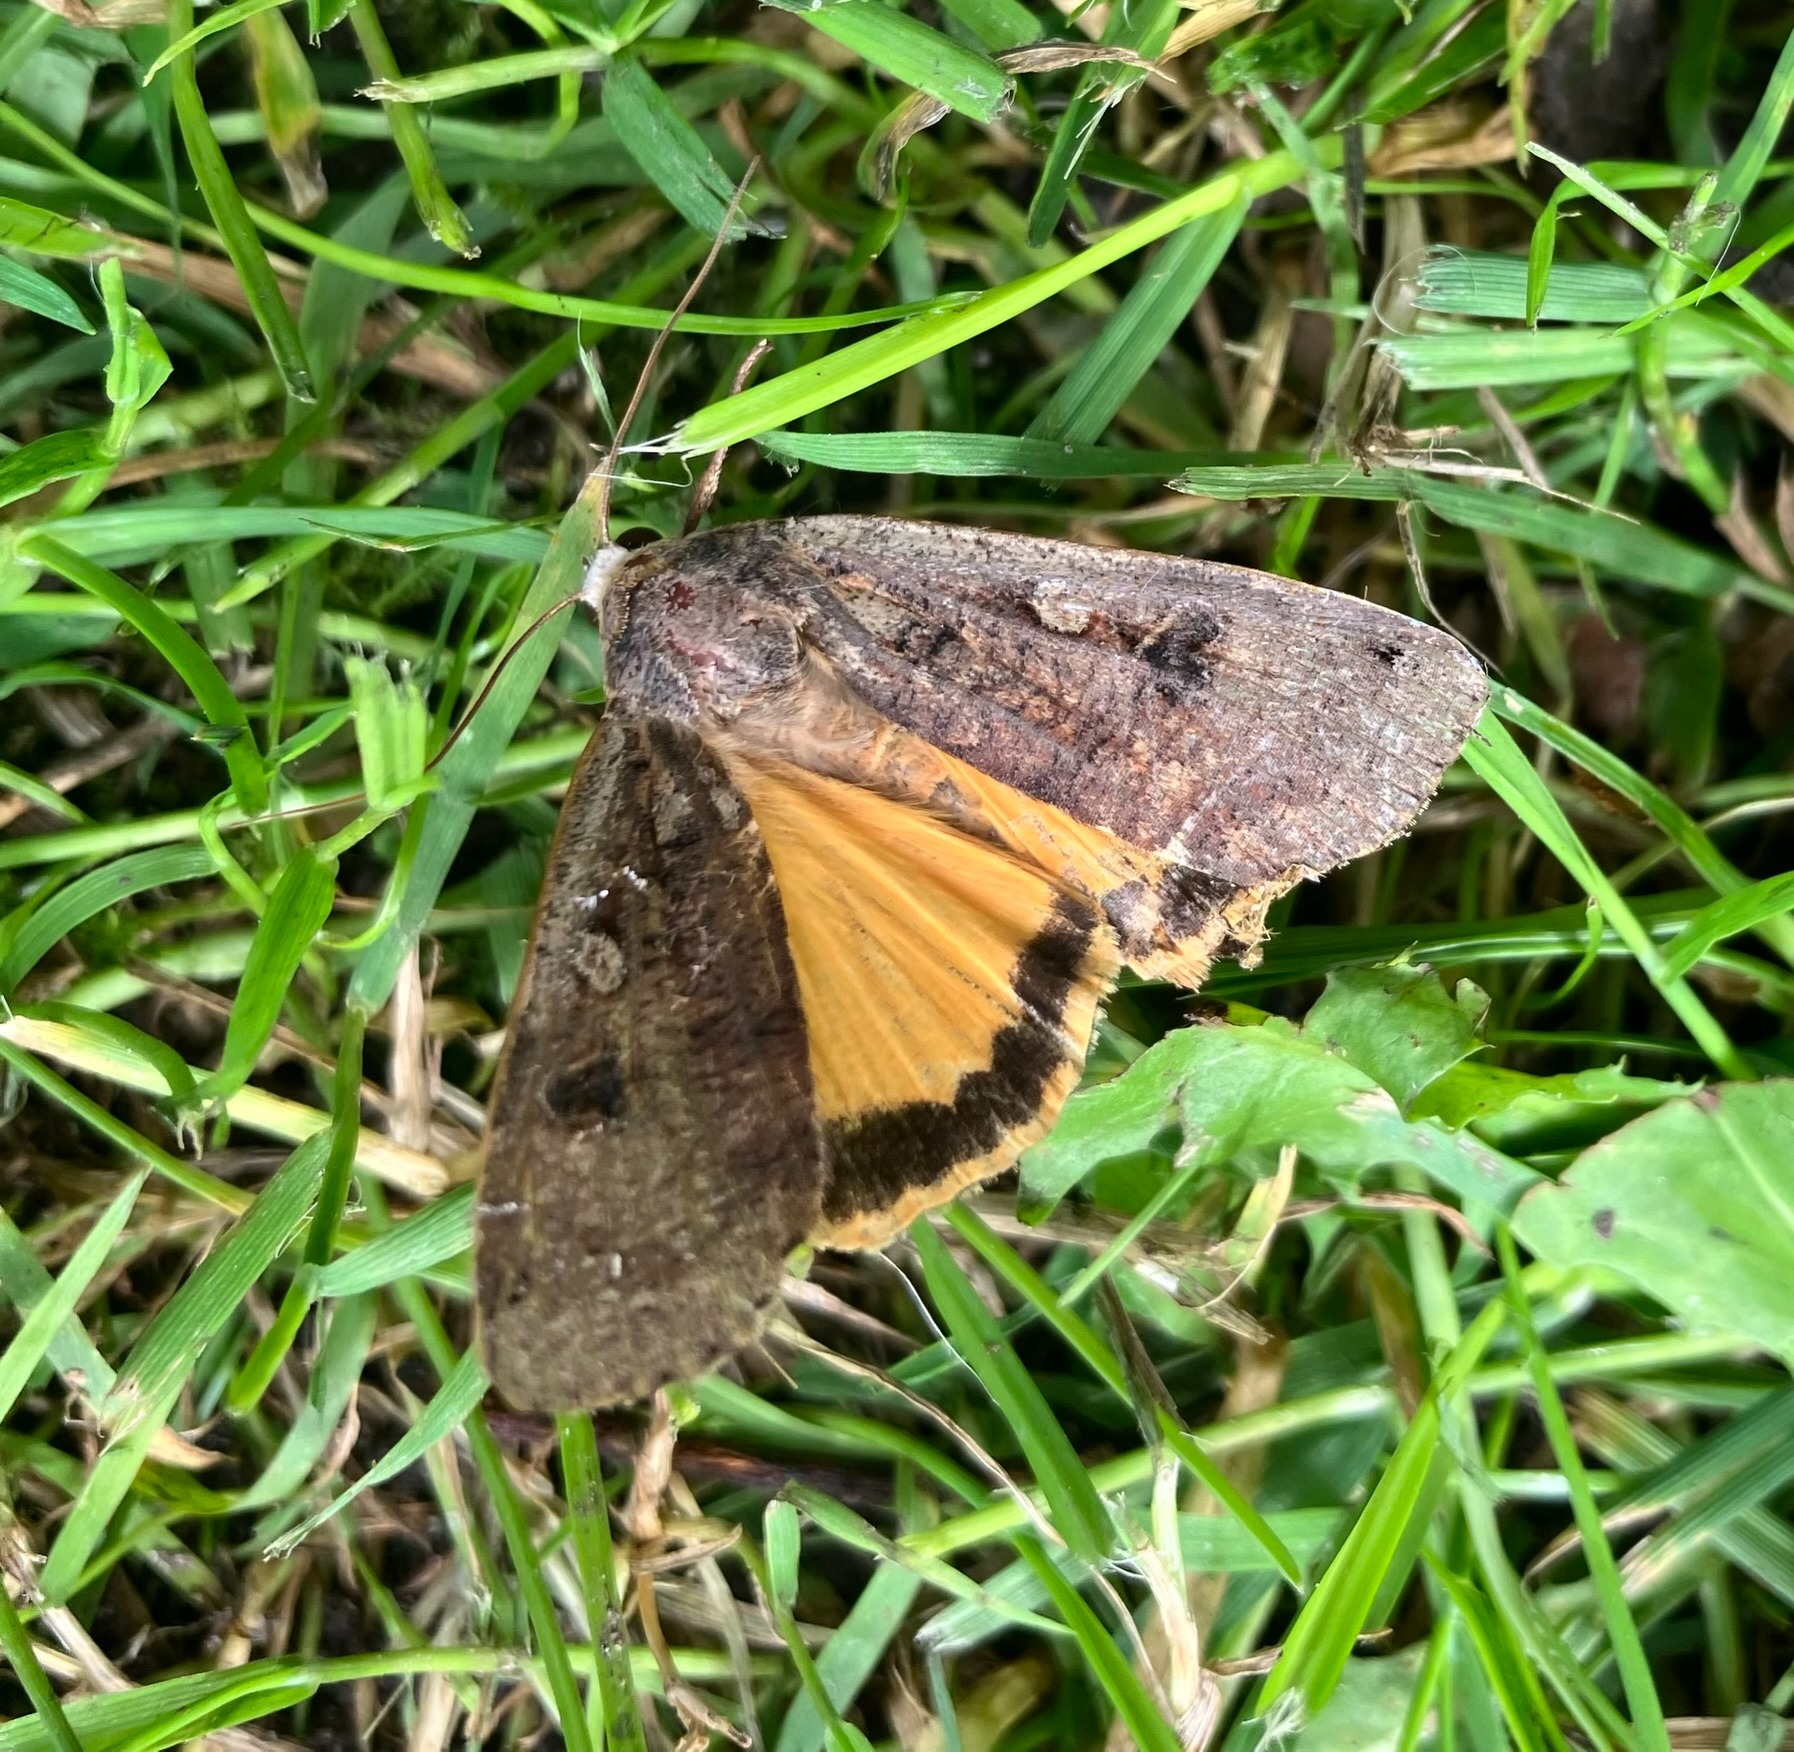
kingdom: Animalia
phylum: Arthropoda
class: Insecta
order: Lepidoptera
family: Noctuidae
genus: Noctua
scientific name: Noctua pronuba
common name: Stor smutugle
